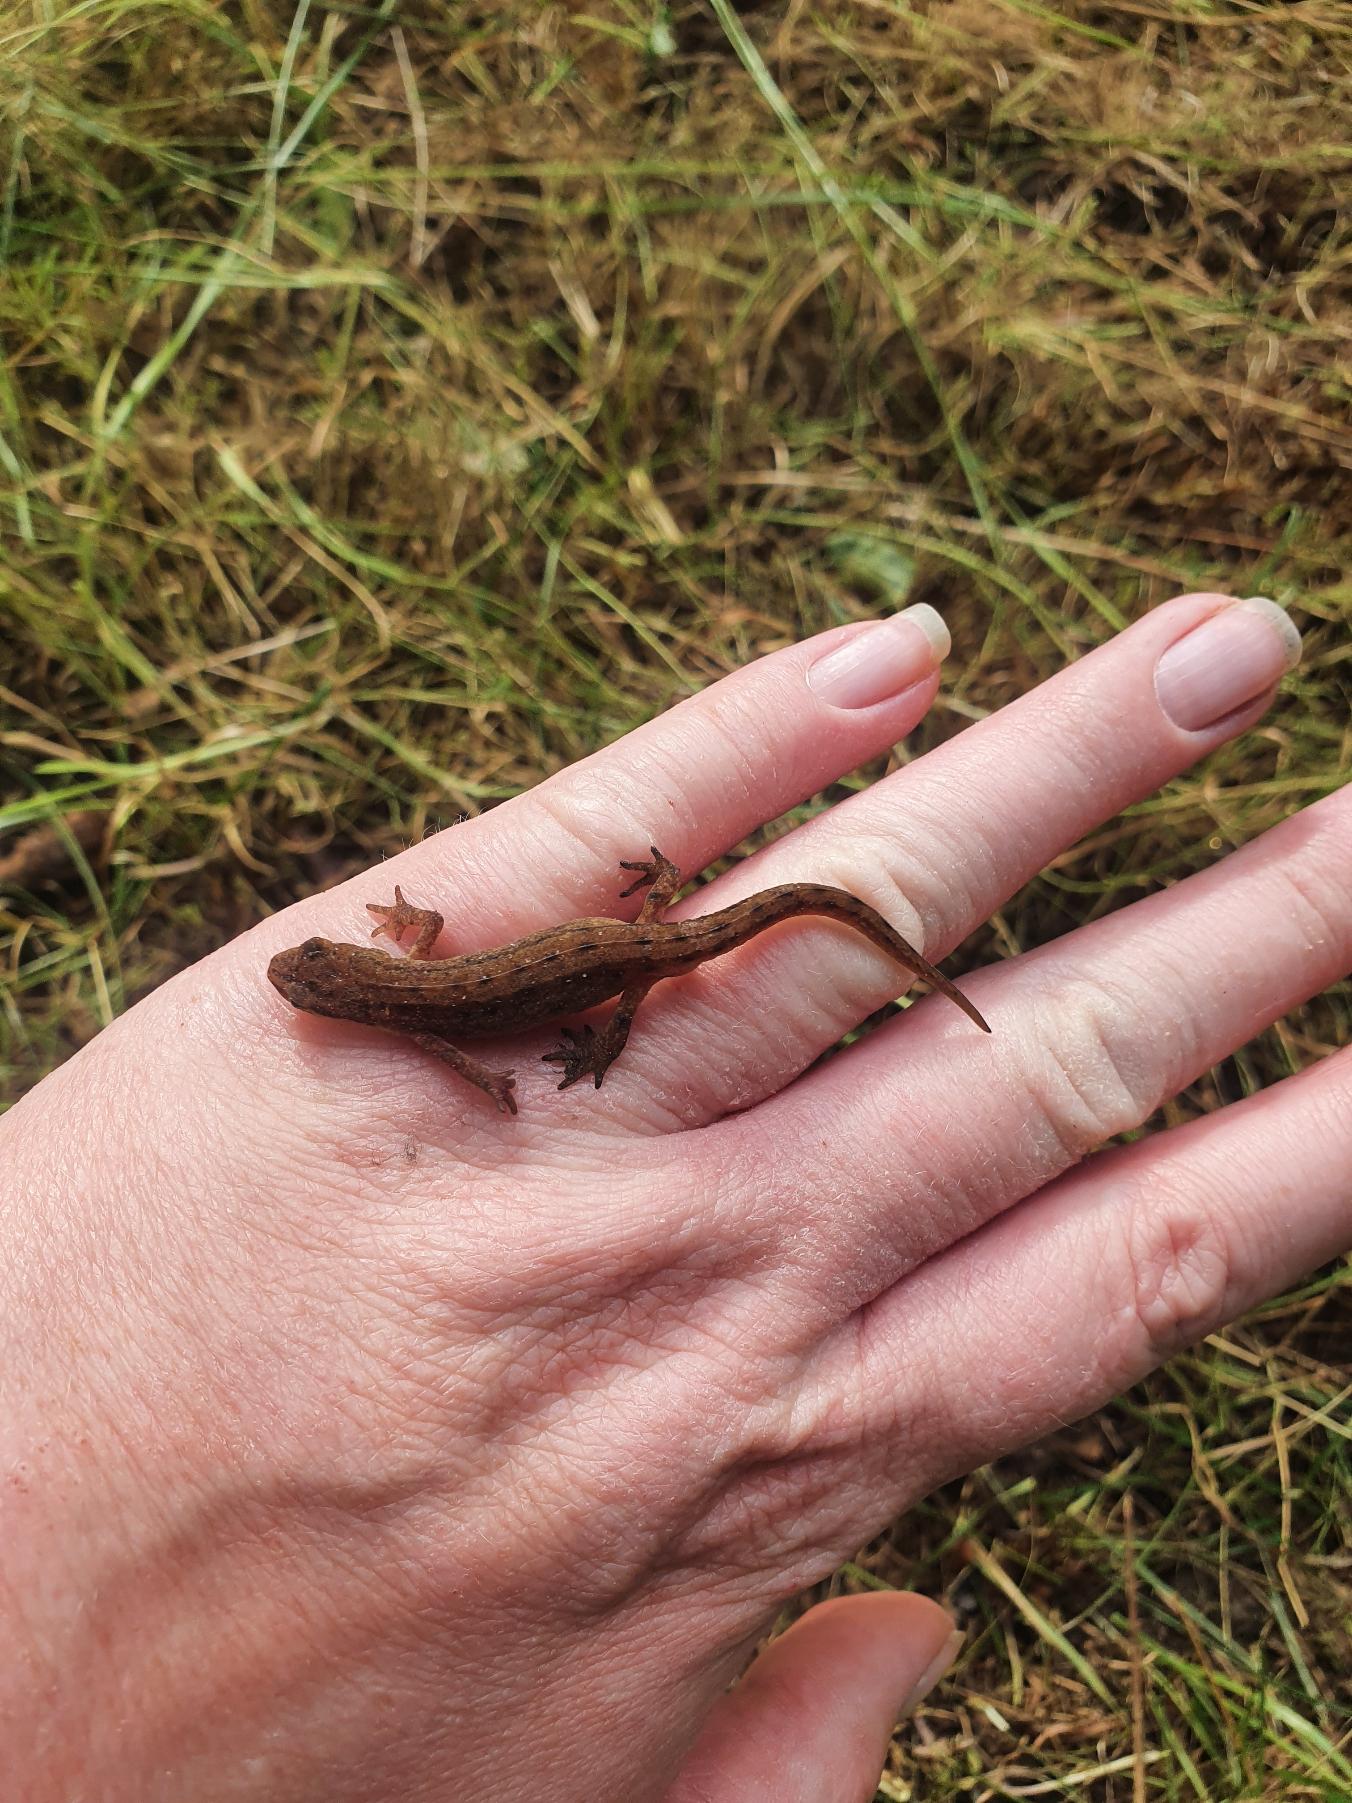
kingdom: Animalia
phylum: Chordata
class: Amphibia
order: Caudata
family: Salamandridae
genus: Lissotriton
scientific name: Lissotriton vulgaris
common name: Lille vandsalamander
